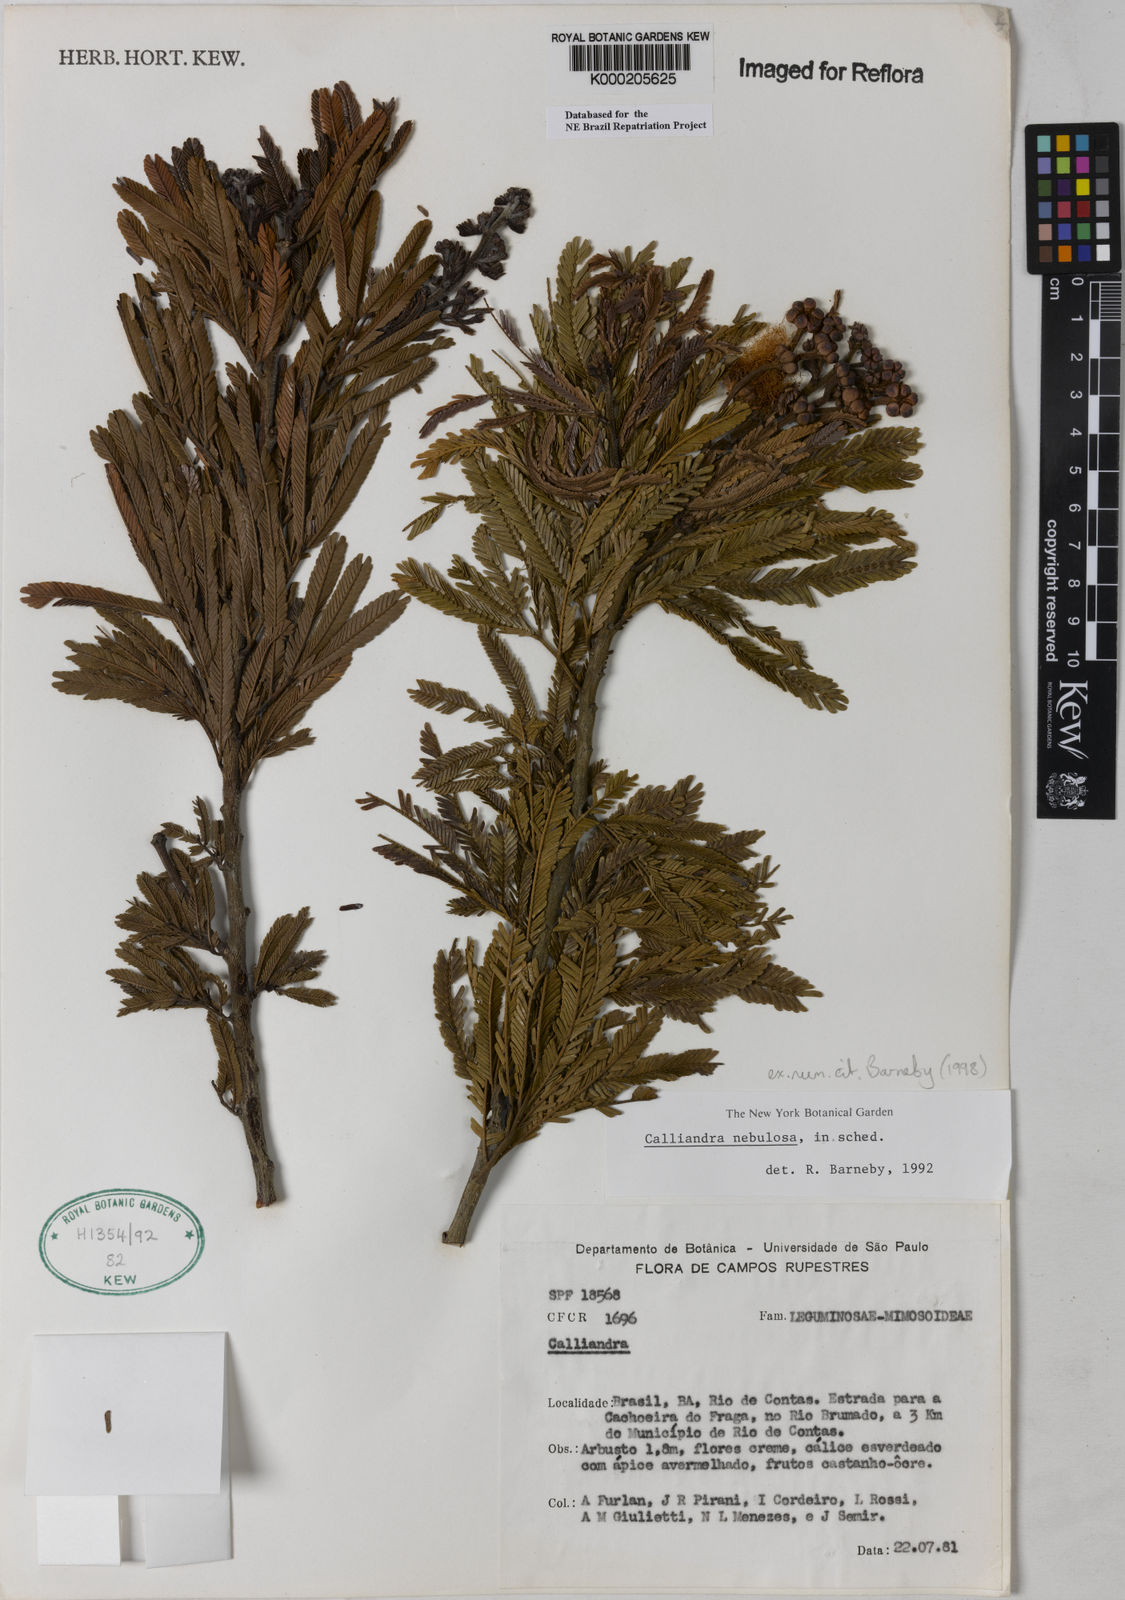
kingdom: Plantae
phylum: Tracheophyta
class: Magnoliopsida
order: Fabales
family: Fabaceae
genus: Calliandra
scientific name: Calliandra nebulosa
